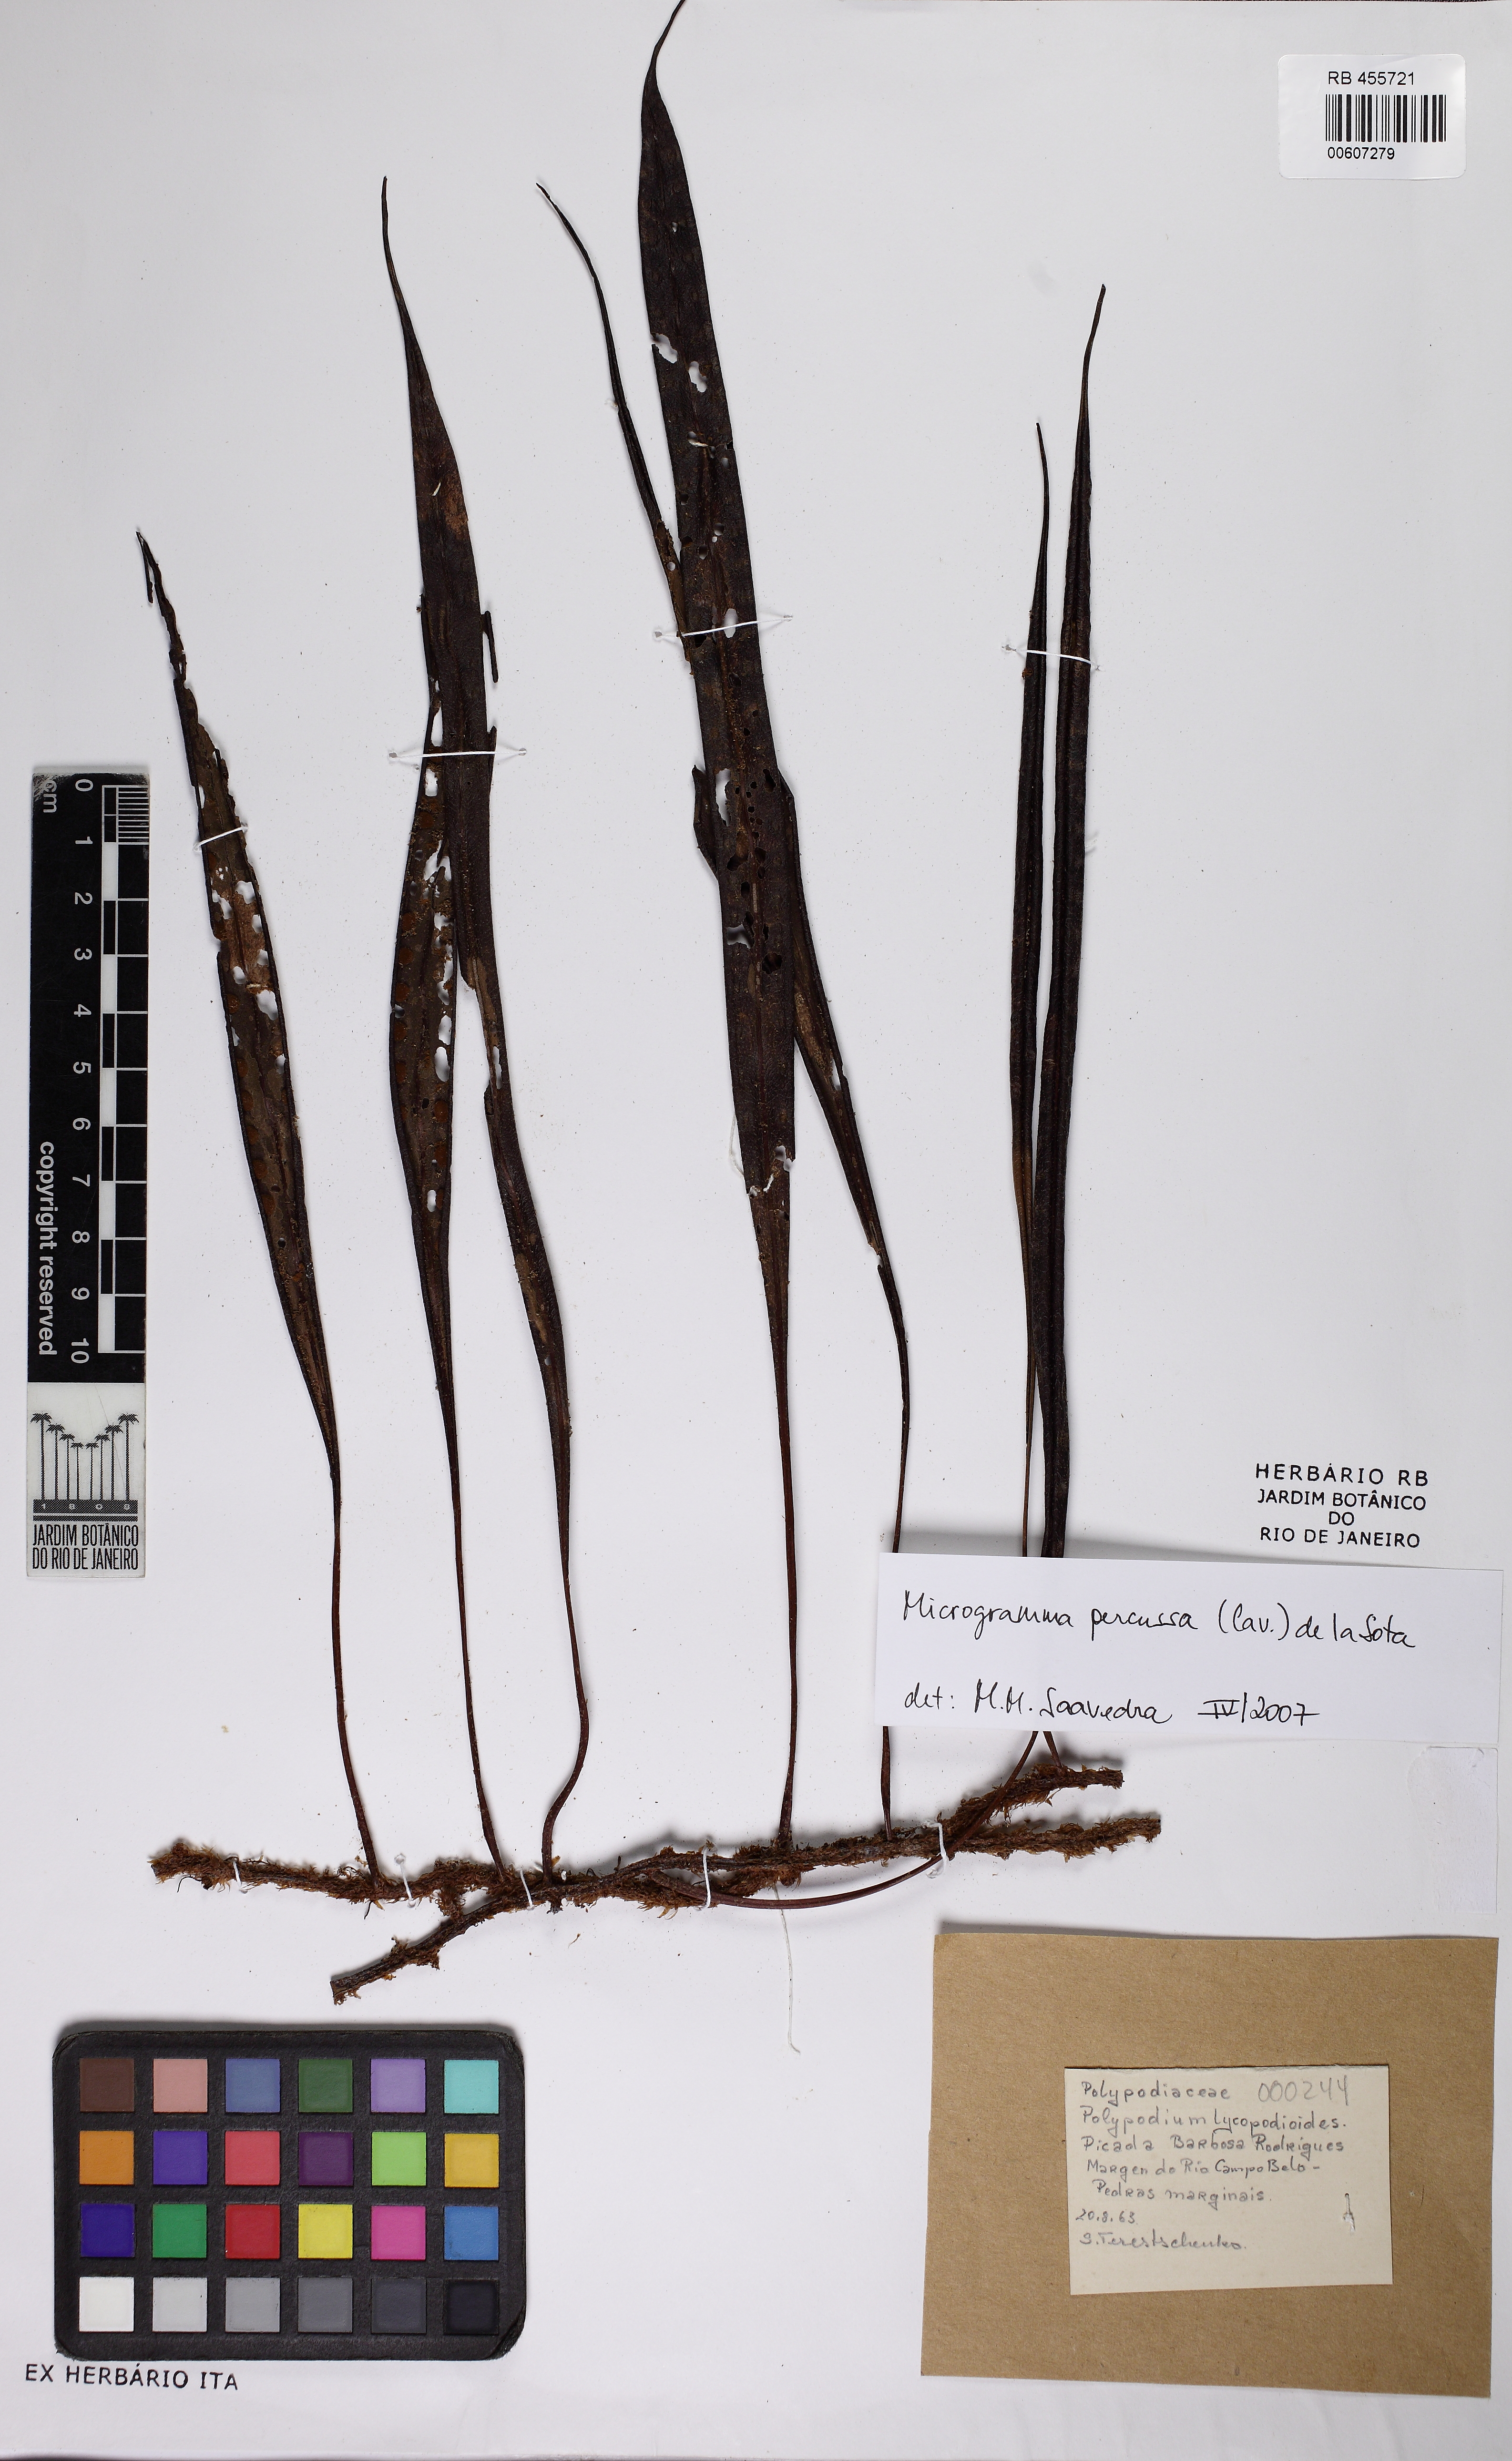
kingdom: Plantae
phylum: Tracheophyta
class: Polypodiopsida
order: Polypodiales
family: Polypodiaceae
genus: Microgramma
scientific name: Microgramma percussa
